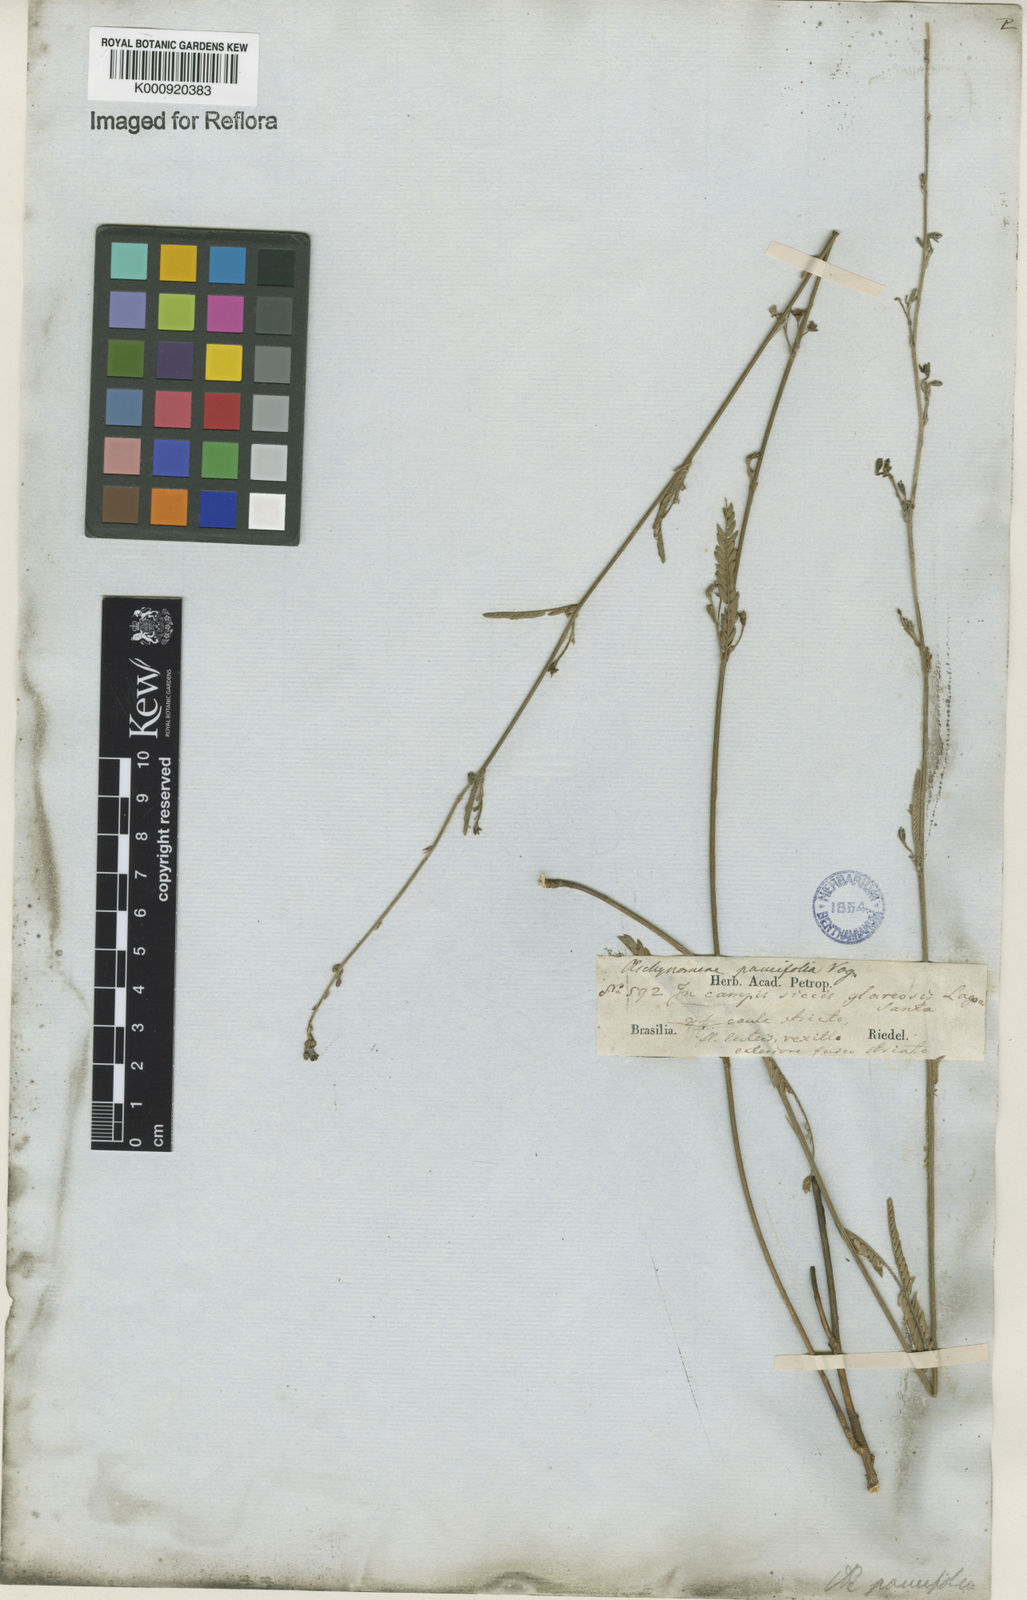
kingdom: Plantae
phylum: Tracheophyta
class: Magnoliopsida
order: Fabales
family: Fabaceae
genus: Ctenodon
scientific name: Ctenodon paucifolius
